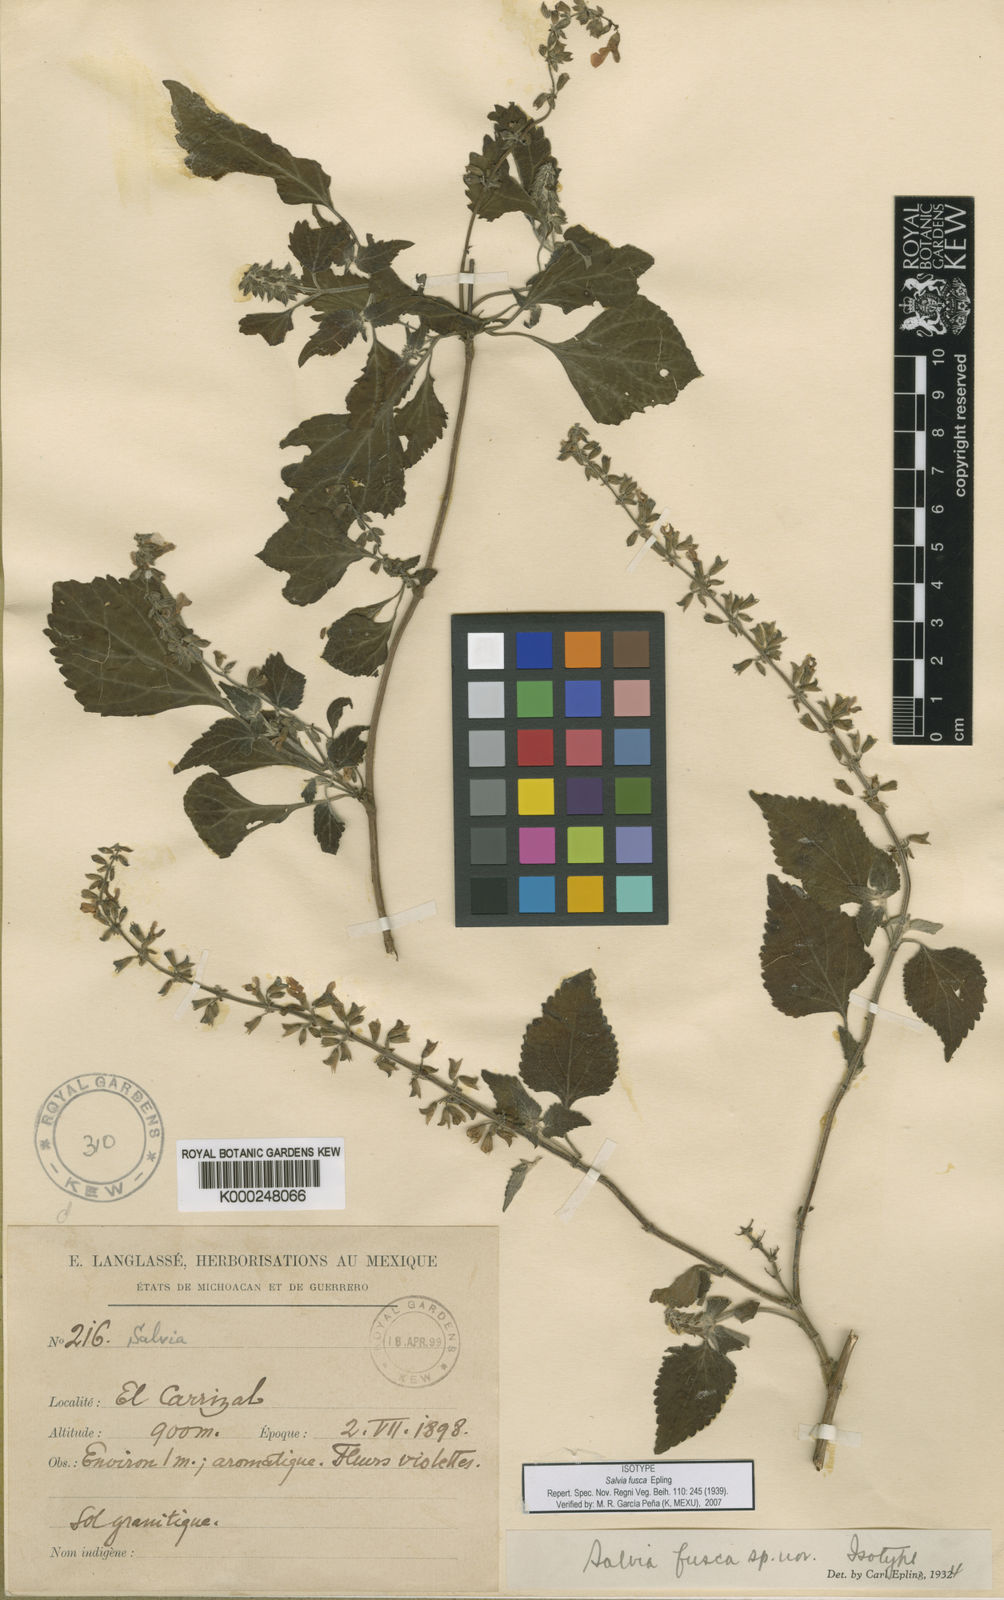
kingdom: Plantae
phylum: Tracheophyta
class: Magnoliopsida
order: Lamiales
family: Lamiaceae
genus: Salvia
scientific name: Salvia fusca
